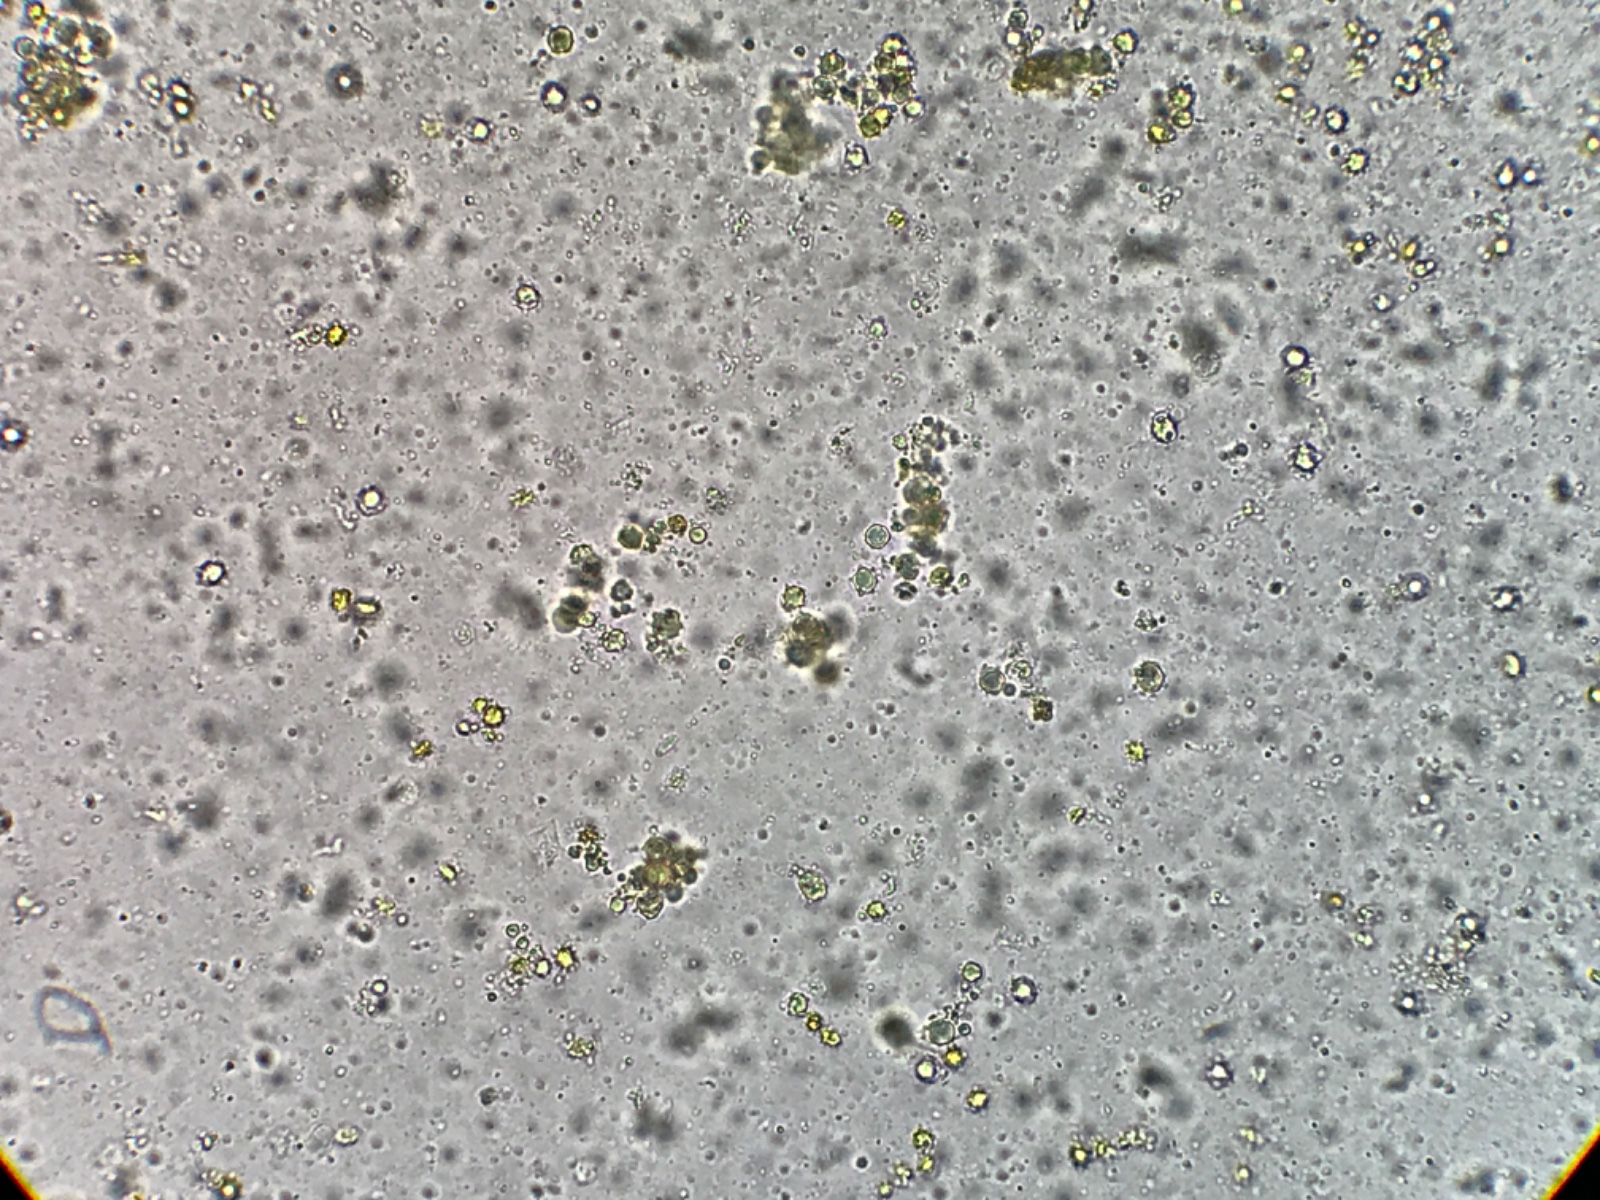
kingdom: Fungi
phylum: Basidiomycota
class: Agaricomycetes
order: Agaricales
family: Clavariaceae
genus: Clavulinopsis
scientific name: Clavulinopsis helvola
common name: orangegul køllesvamp
